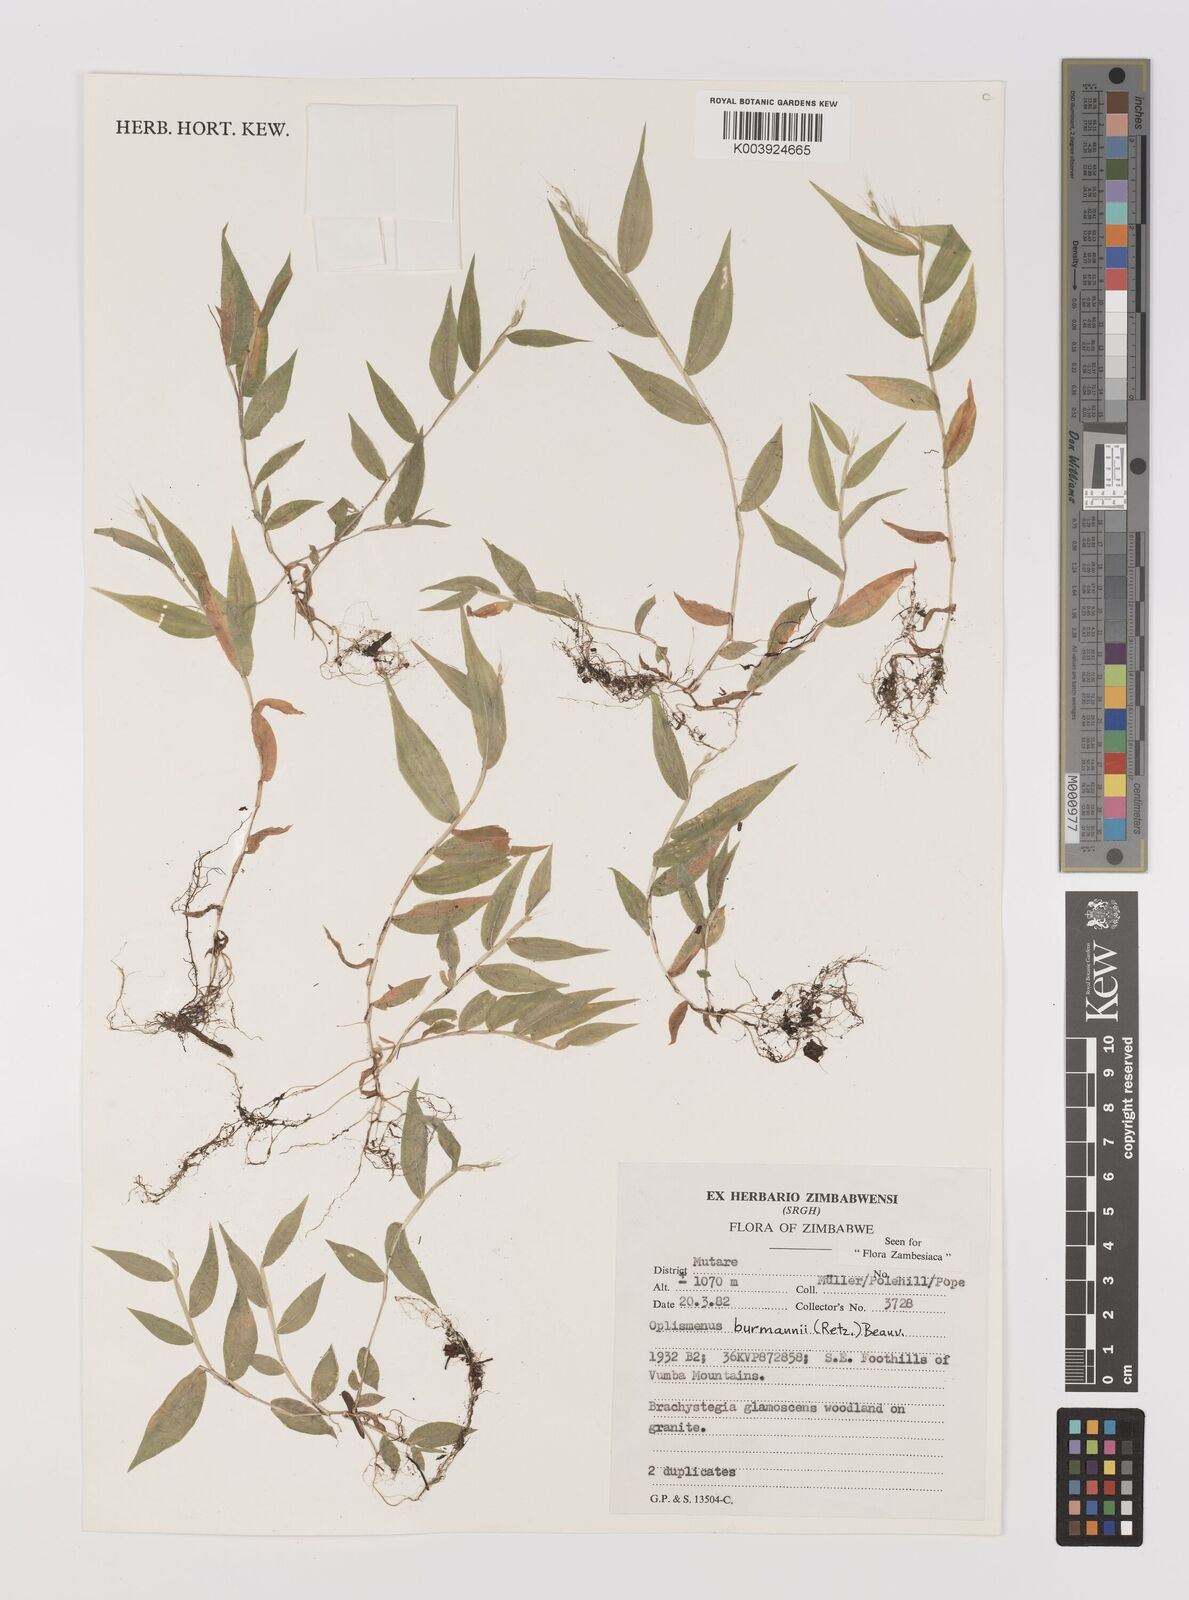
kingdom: Plantae
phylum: Tracheophyta
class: Liliopsida
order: Poales
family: Poaceae
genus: Oplismenus
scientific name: Oplismenus burmanni
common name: Burmann's basketgrass
